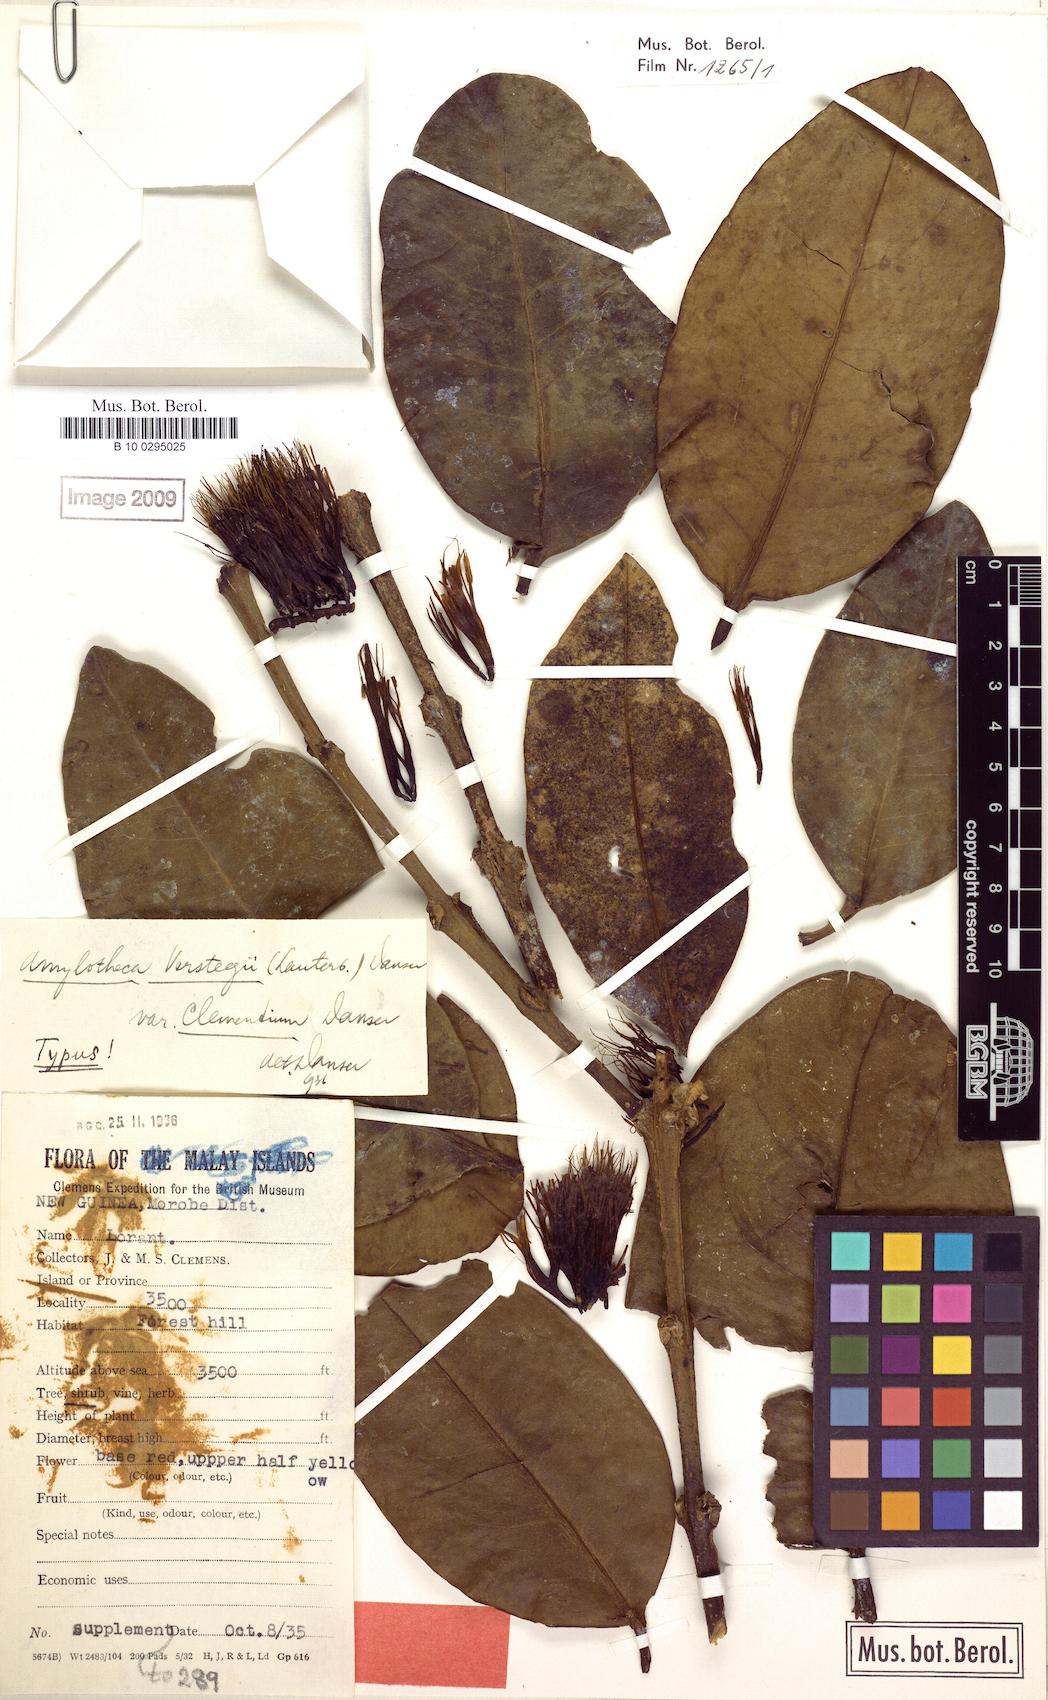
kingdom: Plantae
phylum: Tracheophyta
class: Magnoliopsida
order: Santalales
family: Loranthaceae
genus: Decaisnina
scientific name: Decaisnina hollrungii
